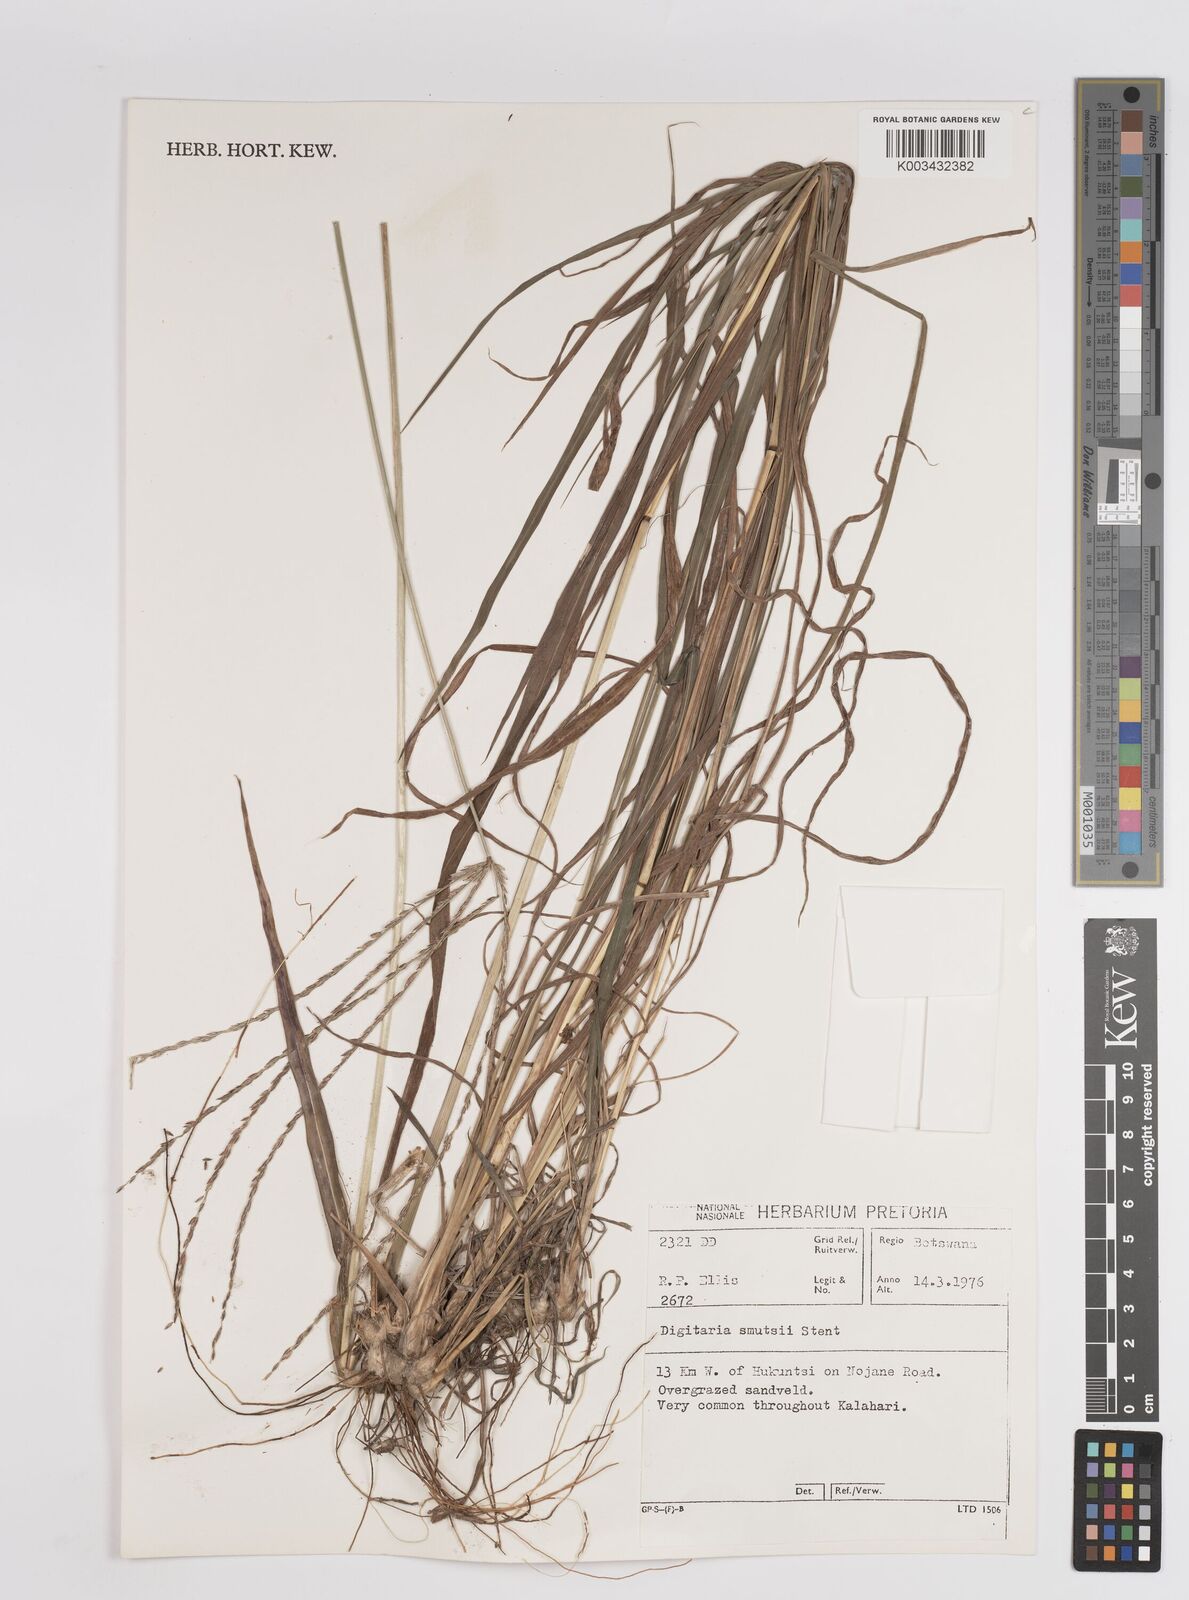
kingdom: Plantae
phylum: Tracheophyta
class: Liliopsida
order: Poales
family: Poaceae
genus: Digitaria
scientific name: Digitaria eriantha
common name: Digitgrass
